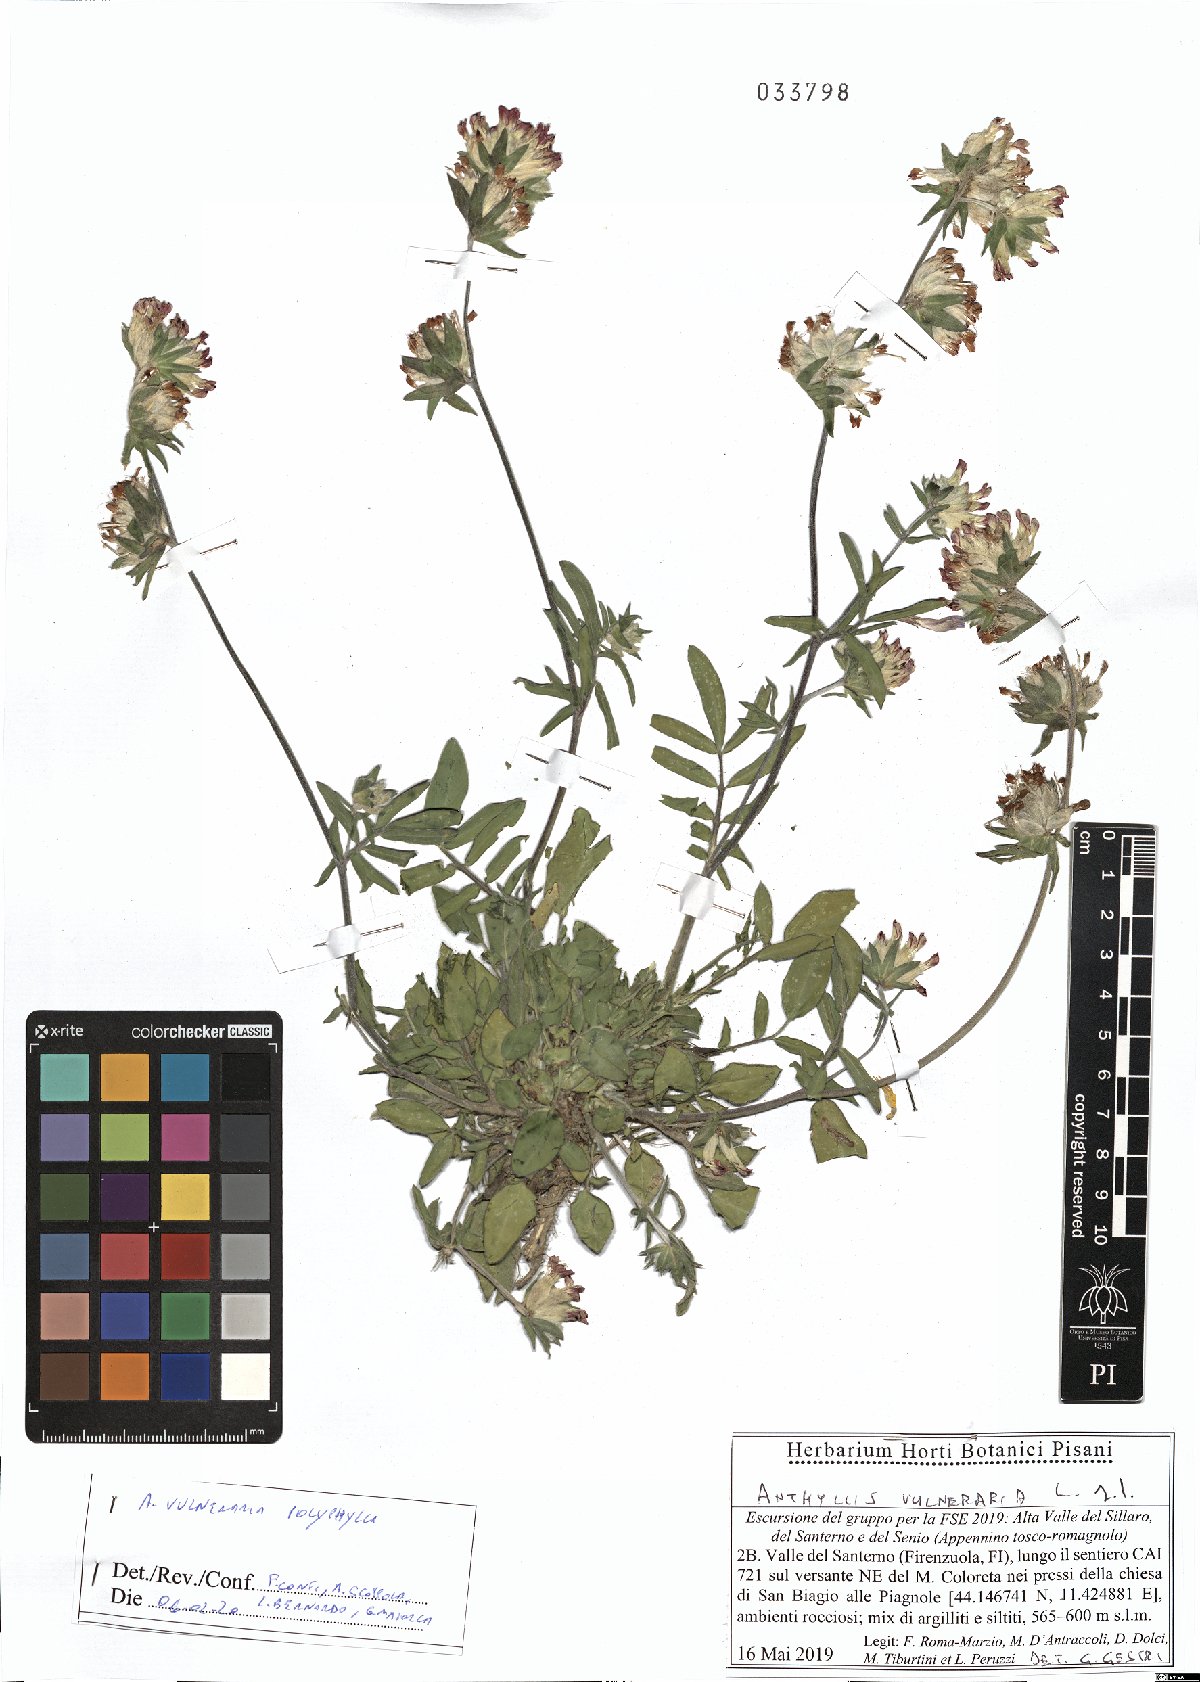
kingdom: Plantae
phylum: Tracheophyta
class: Magnoliopsida
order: Fabales
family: Fabaceae
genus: Anthyllis
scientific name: Anthyllis vulneraria
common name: Kidney vetch
